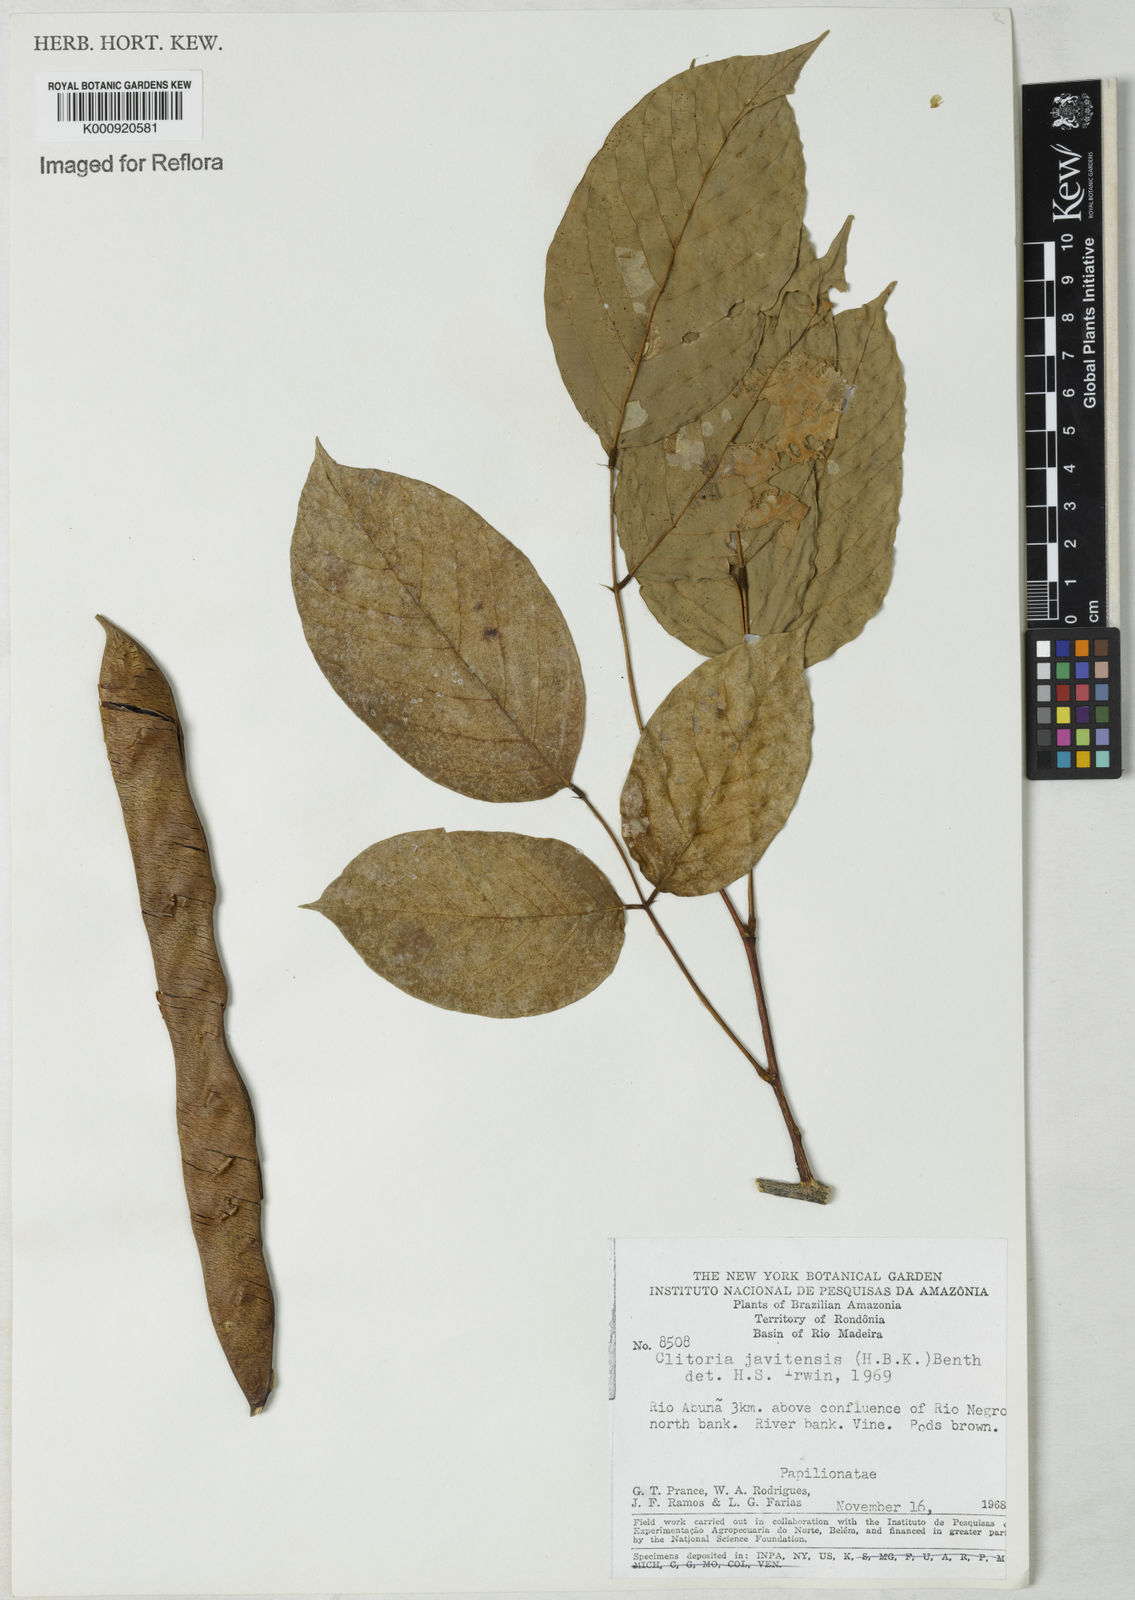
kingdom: Plantae
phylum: Tracheophyta
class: Magnoliopsida
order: Fabales
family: Fabaceae
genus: Clitoria
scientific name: Clitoria javitensis
